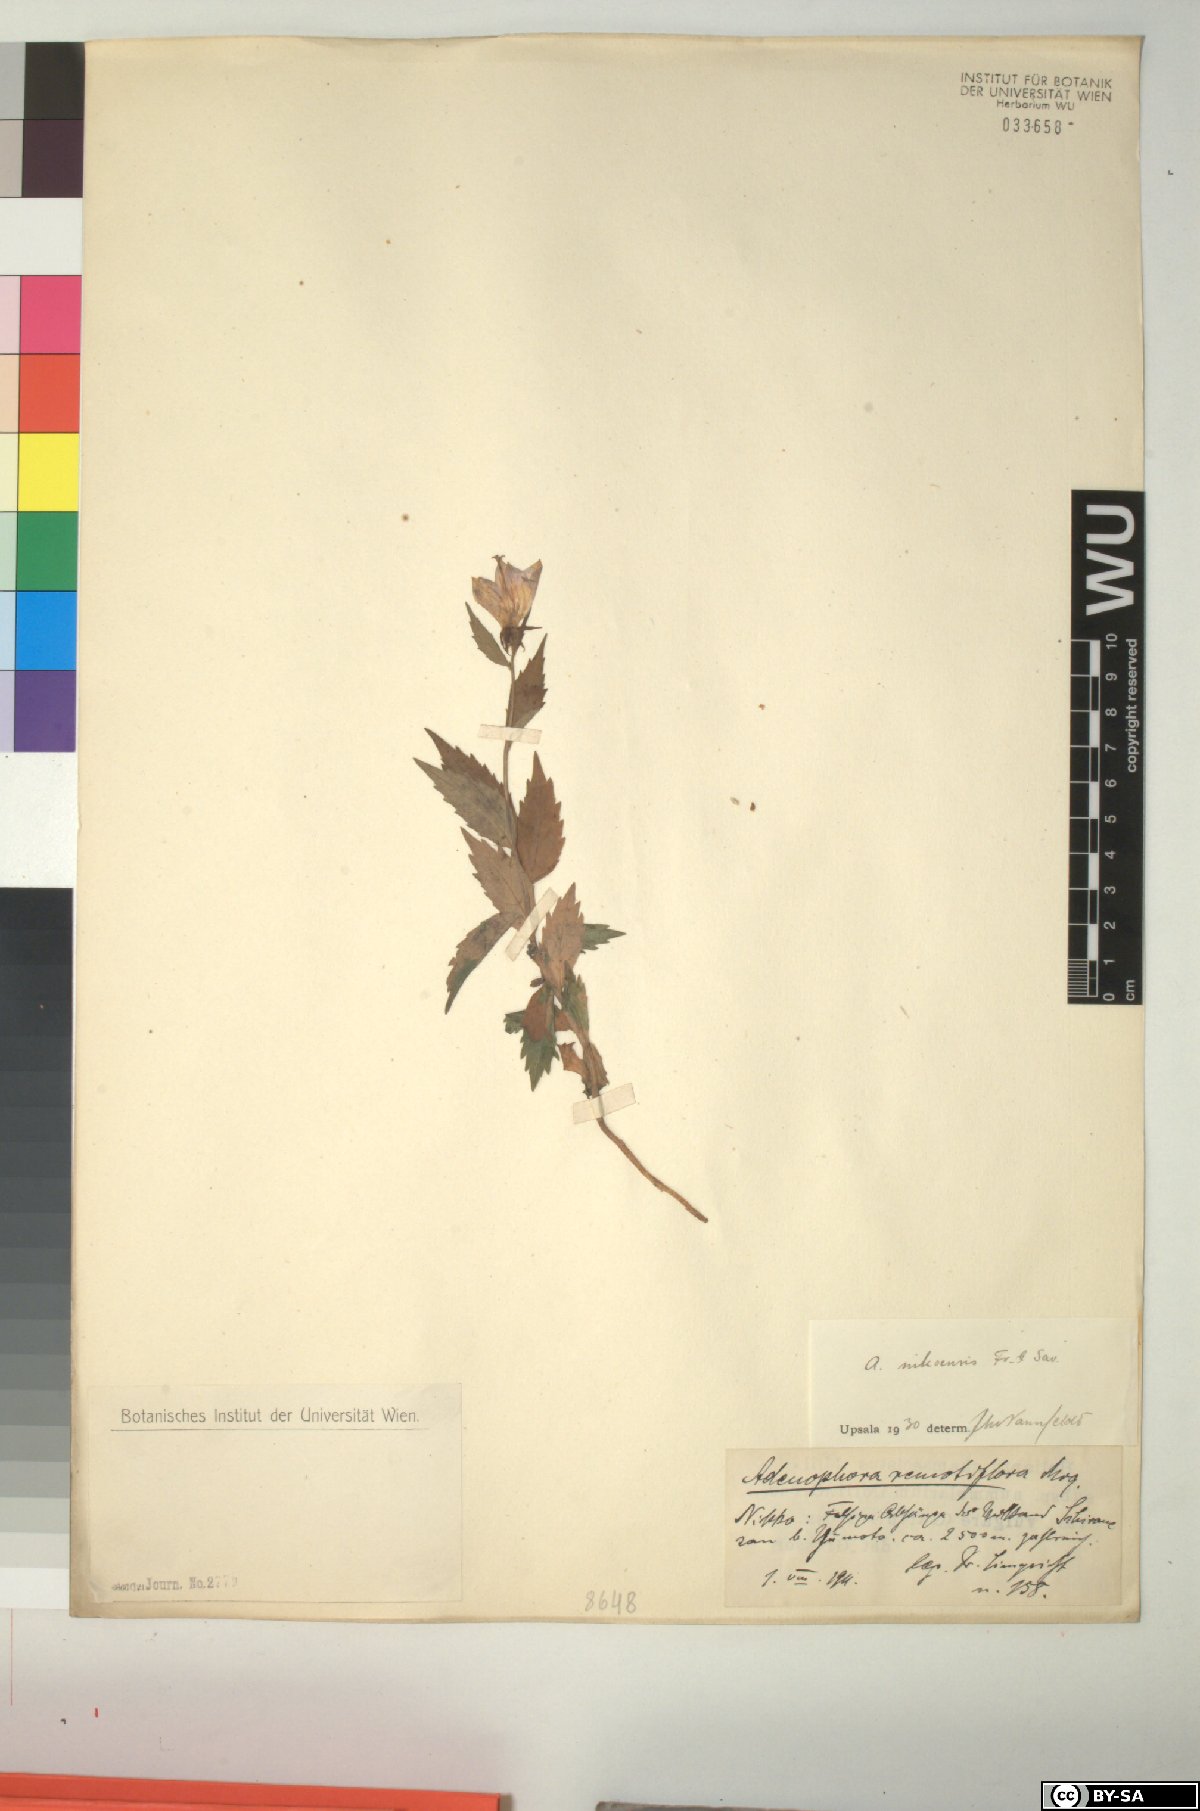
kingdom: Plantae
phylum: Tracheophyta
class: Magnoliopsida
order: Asterales
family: Campanulaceae
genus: Adenophora
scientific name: Adenophora nikoensis
